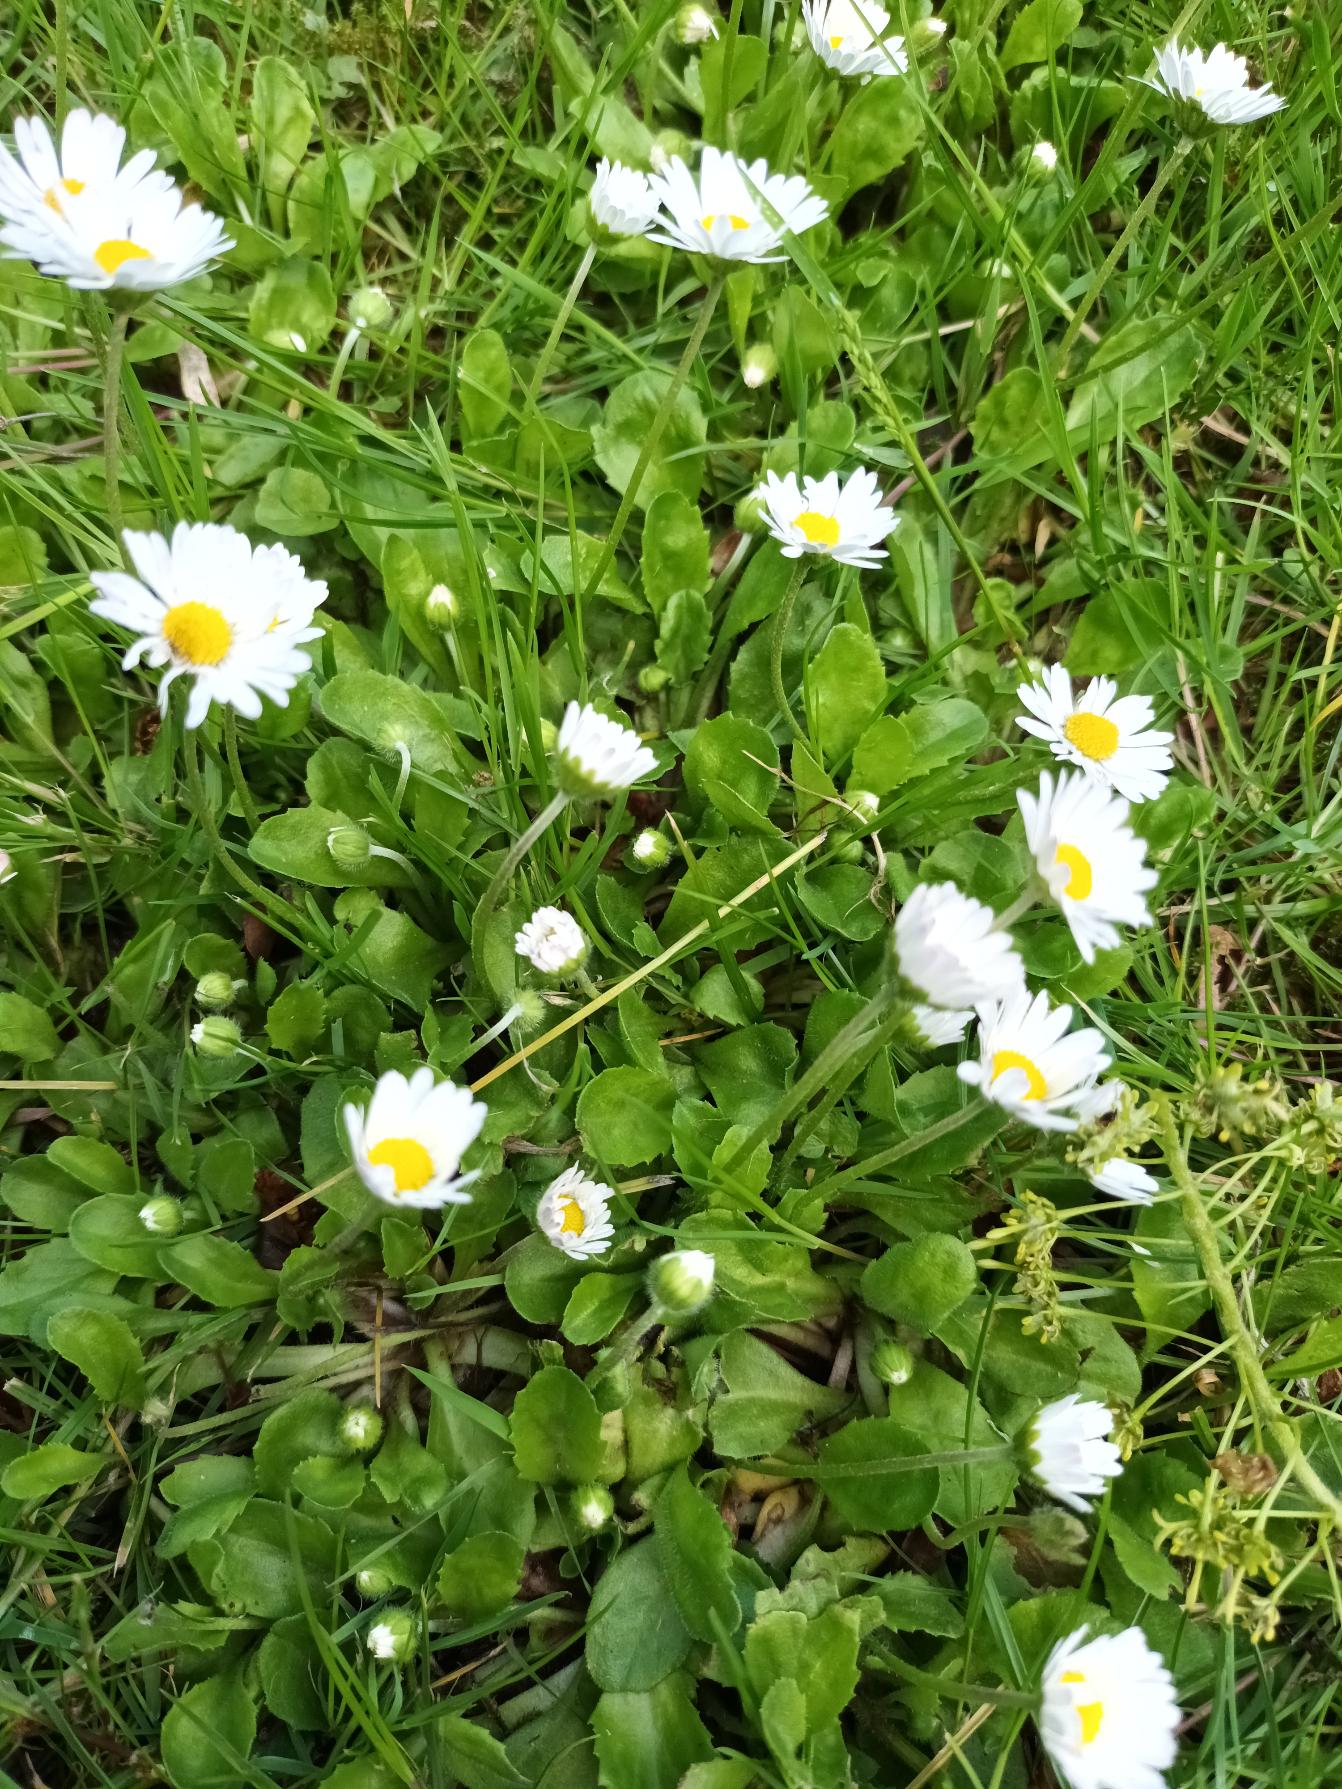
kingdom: Plantae
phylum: Tracheophyta
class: Magnoliopsida
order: Asterales
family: Asteraceae
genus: Bellis
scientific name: Bellis perennis
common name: Tusindfryd
